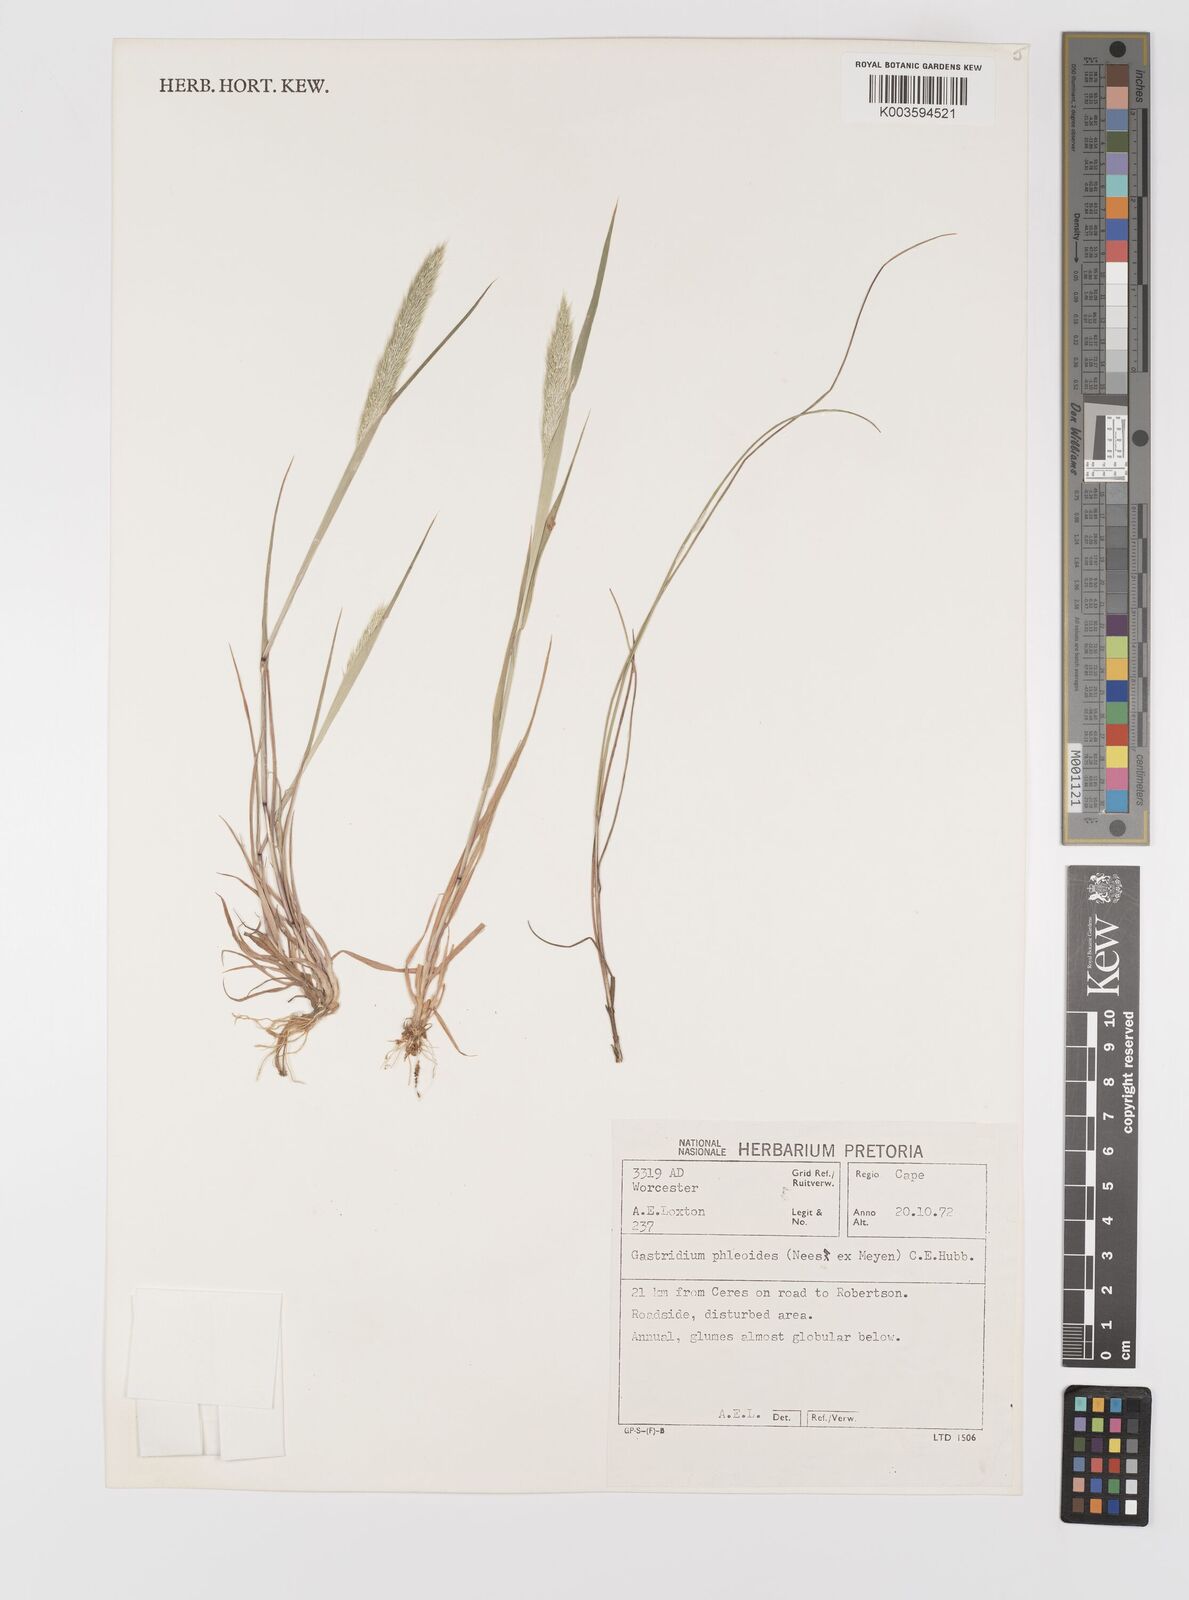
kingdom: Plantae
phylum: Tracheophyta
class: Liliopsida
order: Poales
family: Poaceae
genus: Gastridium
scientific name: Gastridium phleoides
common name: Nit grass
